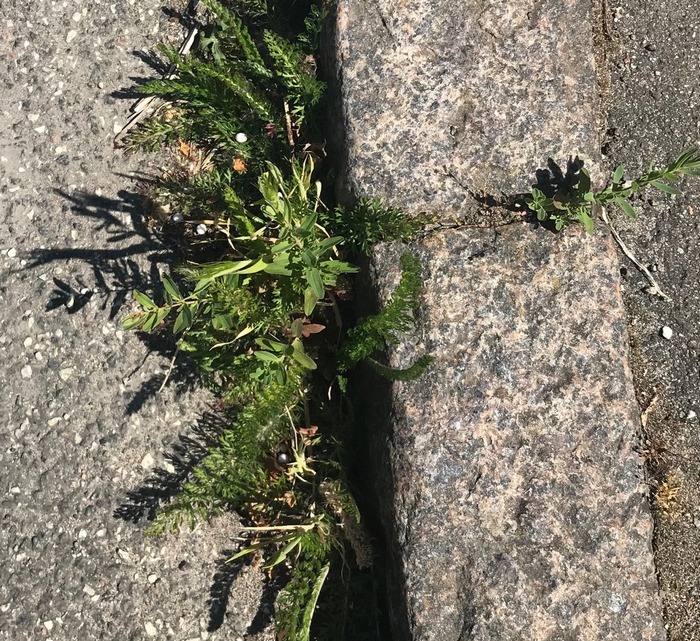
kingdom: Plantae
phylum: Tracheophyta
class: Magnoliopsida
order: Asterales
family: Asteraceae
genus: Achillea
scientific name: Achillea millefolium
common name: Almindelig røllike
